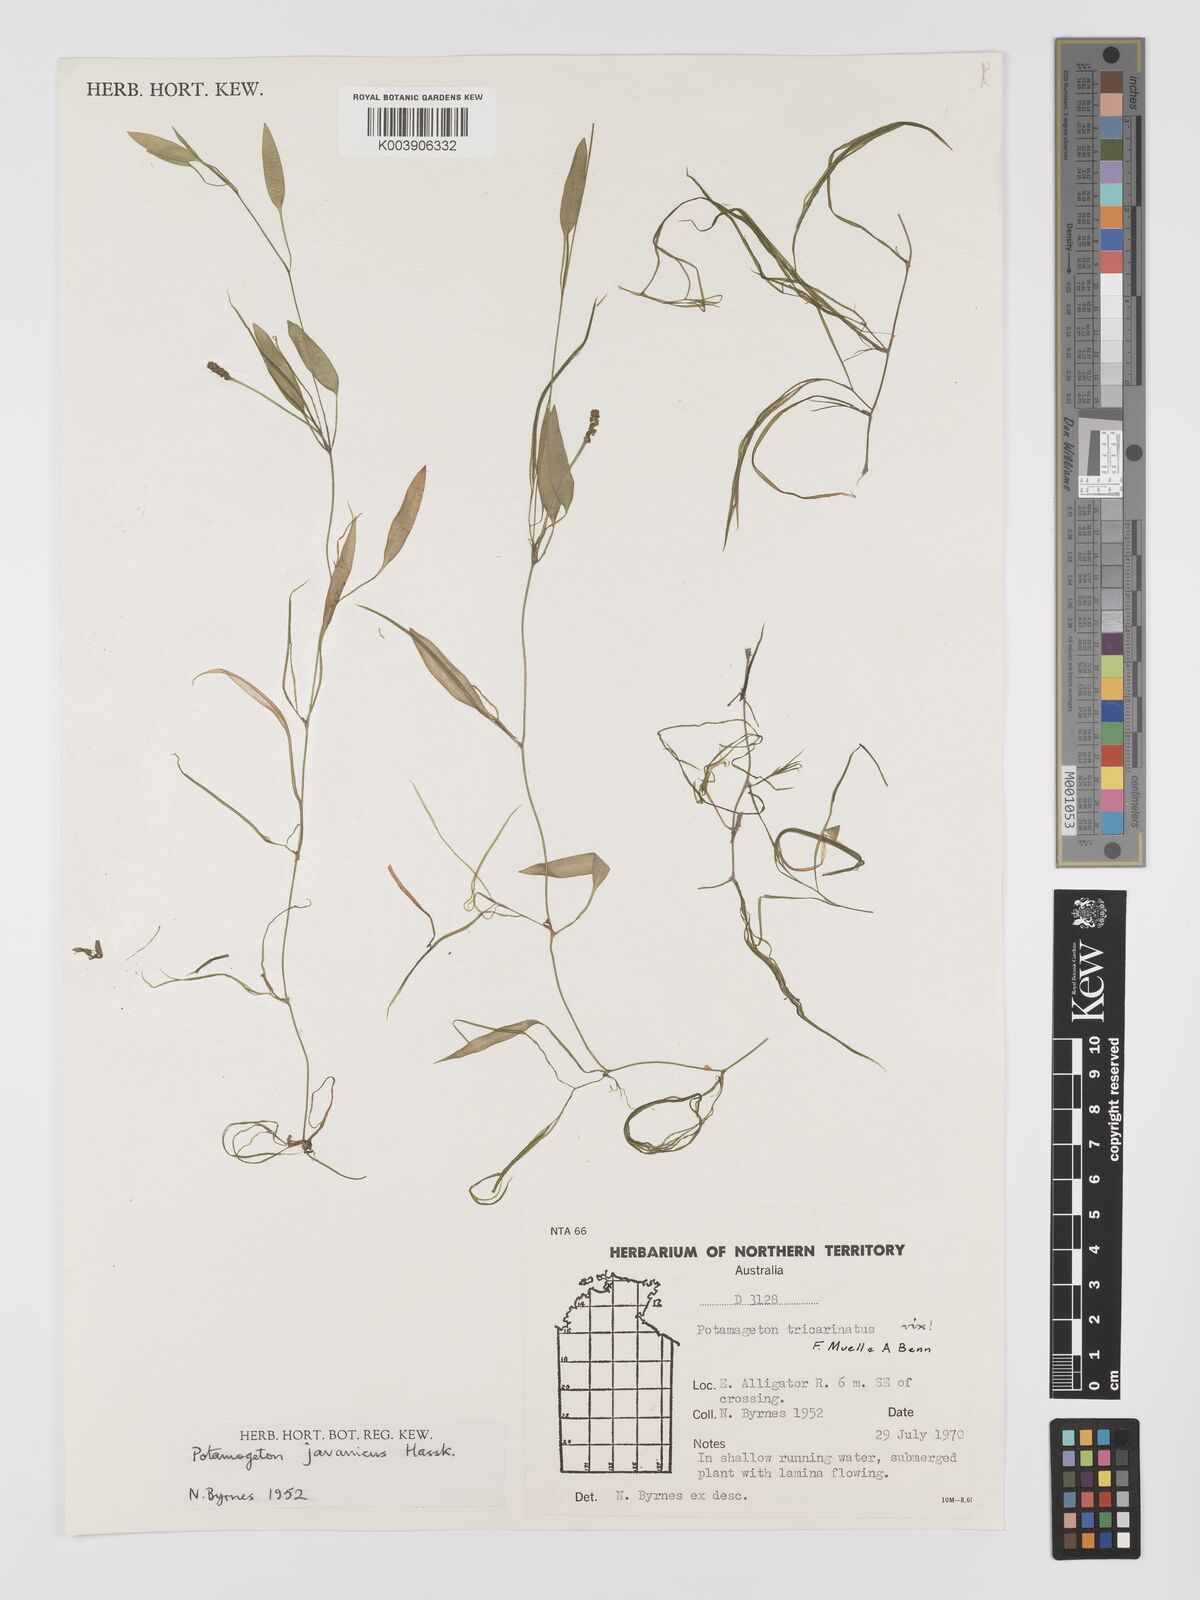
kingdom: Plantae
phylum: Tracheophyta
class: Liliopsida
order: Alismatales
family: Potamogetonaceae
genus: Potamogeton
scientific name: Potamogeton ochreatus
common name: Blunt pondweed
